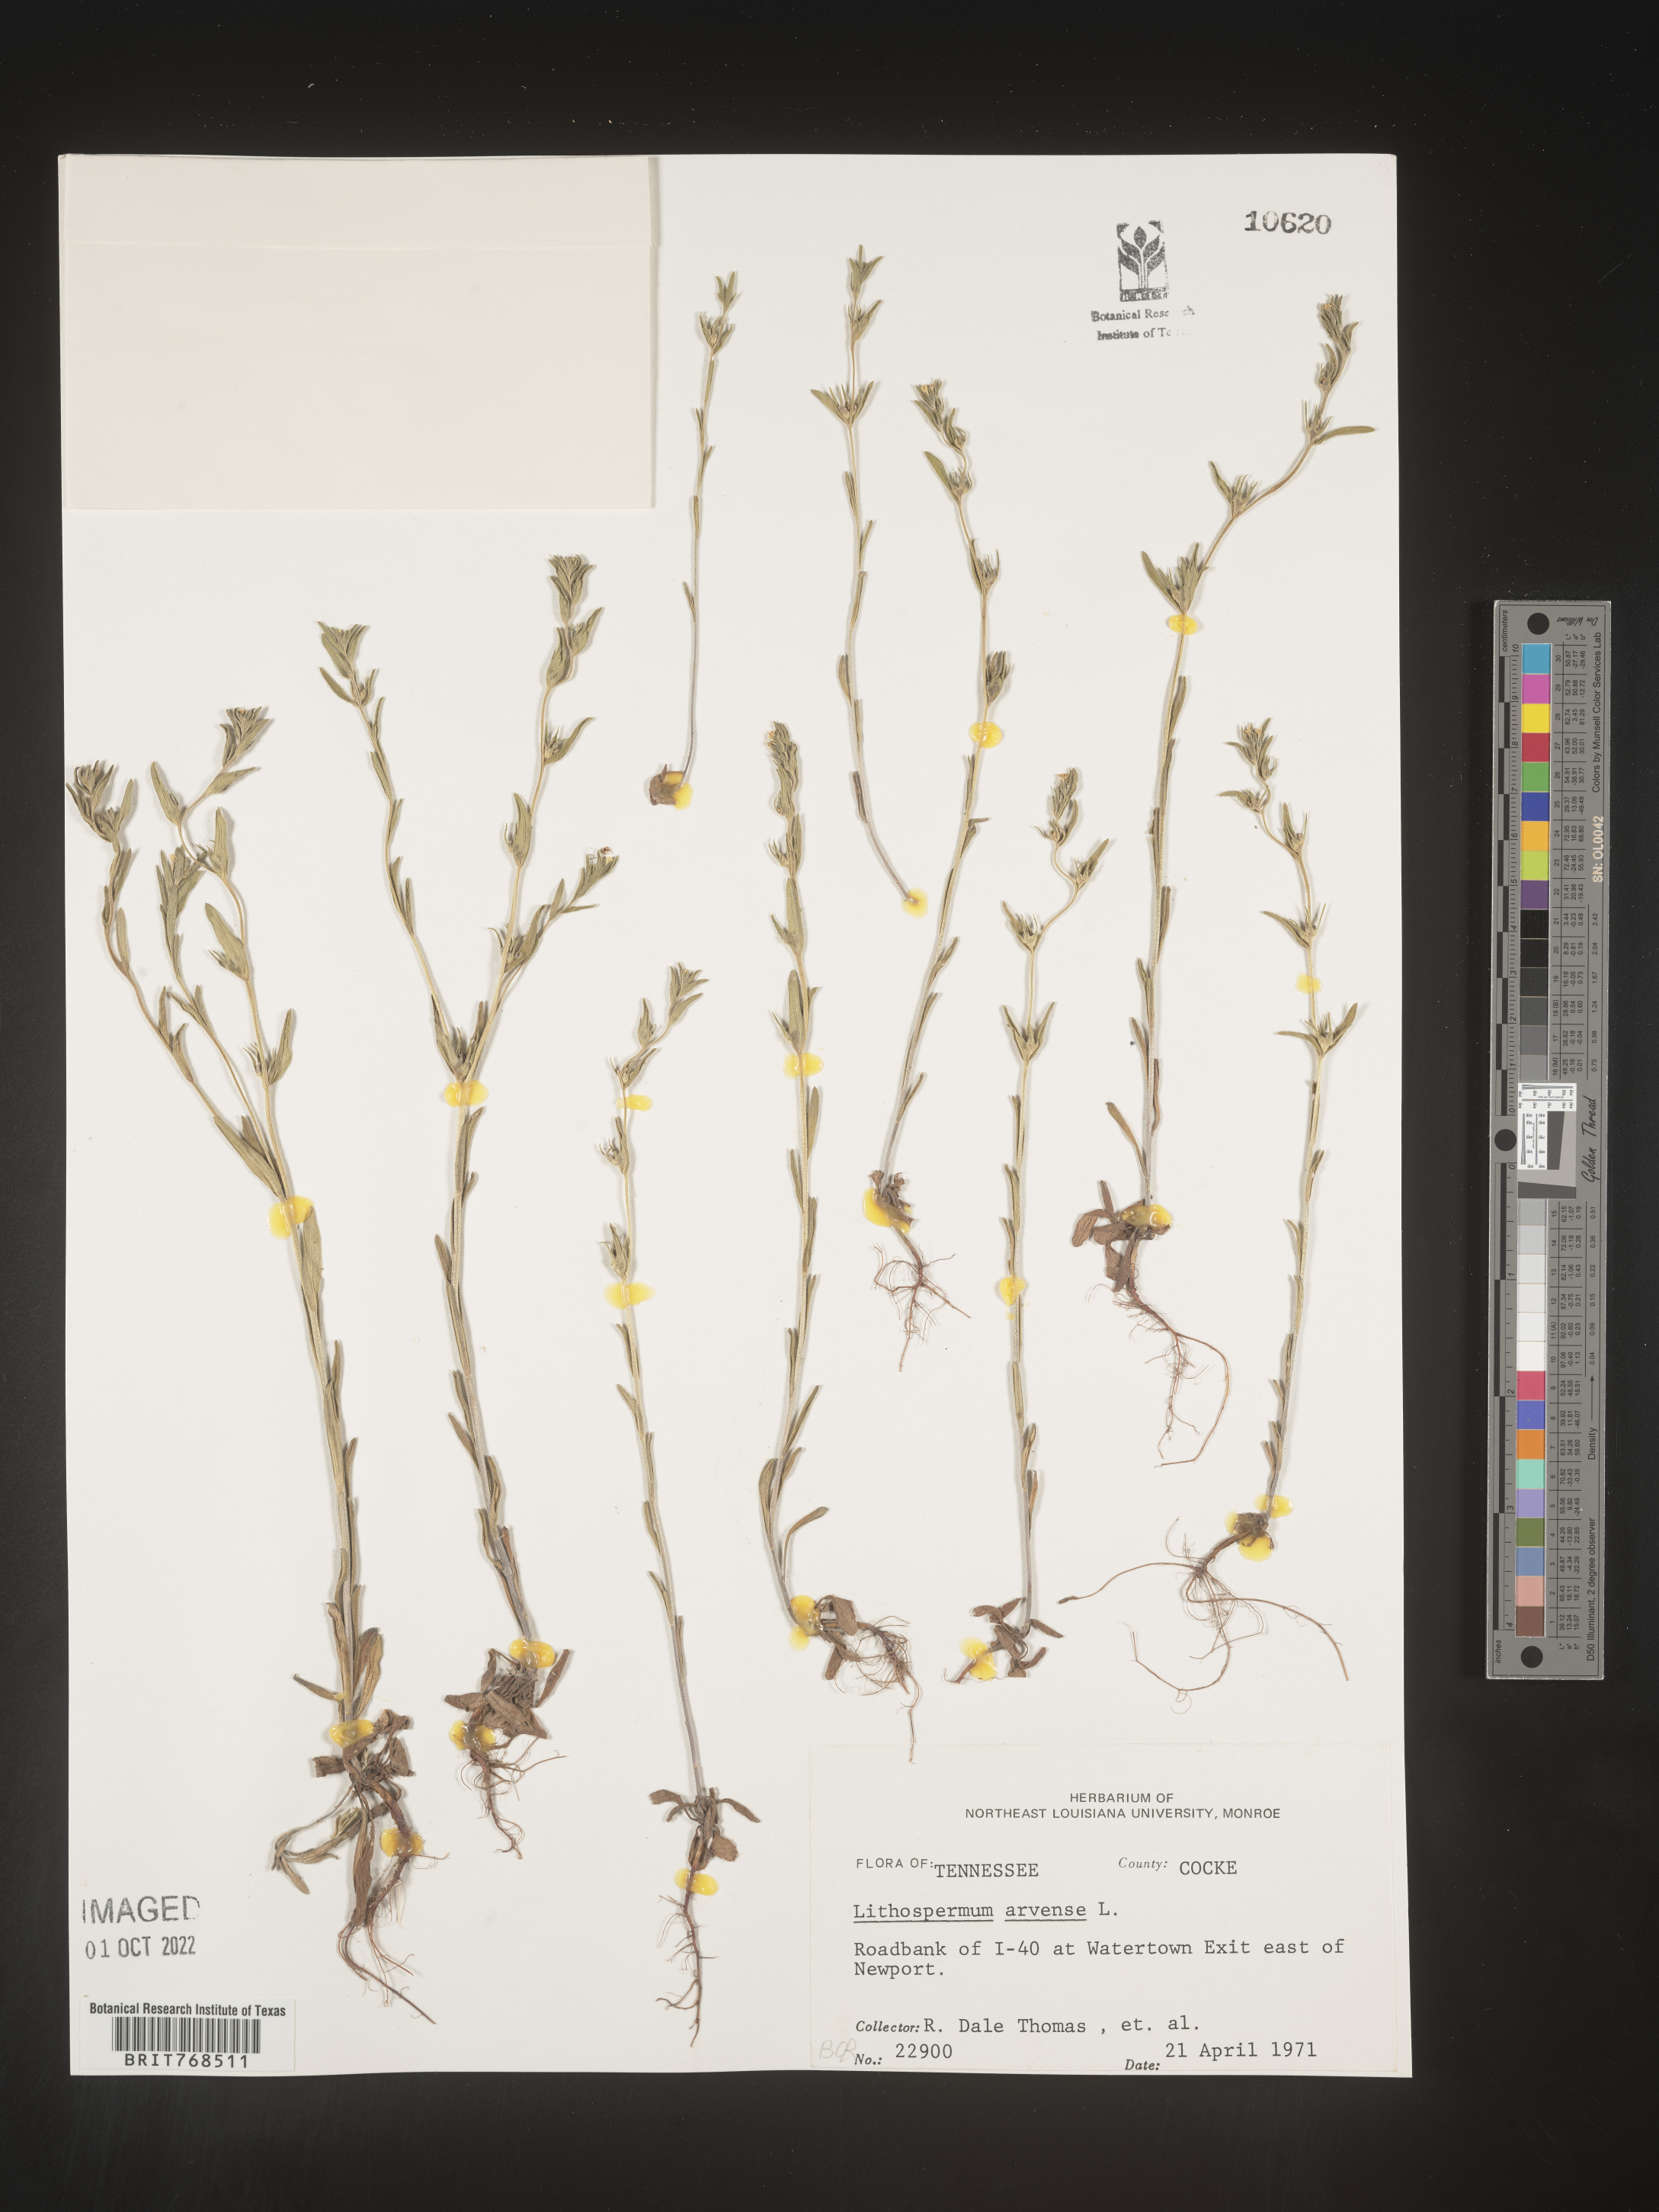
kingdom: Plantae
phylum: Tracheophyta
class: Magnoliopsida
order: Boraginales
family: Boraginaceae
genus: Lithospermum
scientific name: Lithospermum
